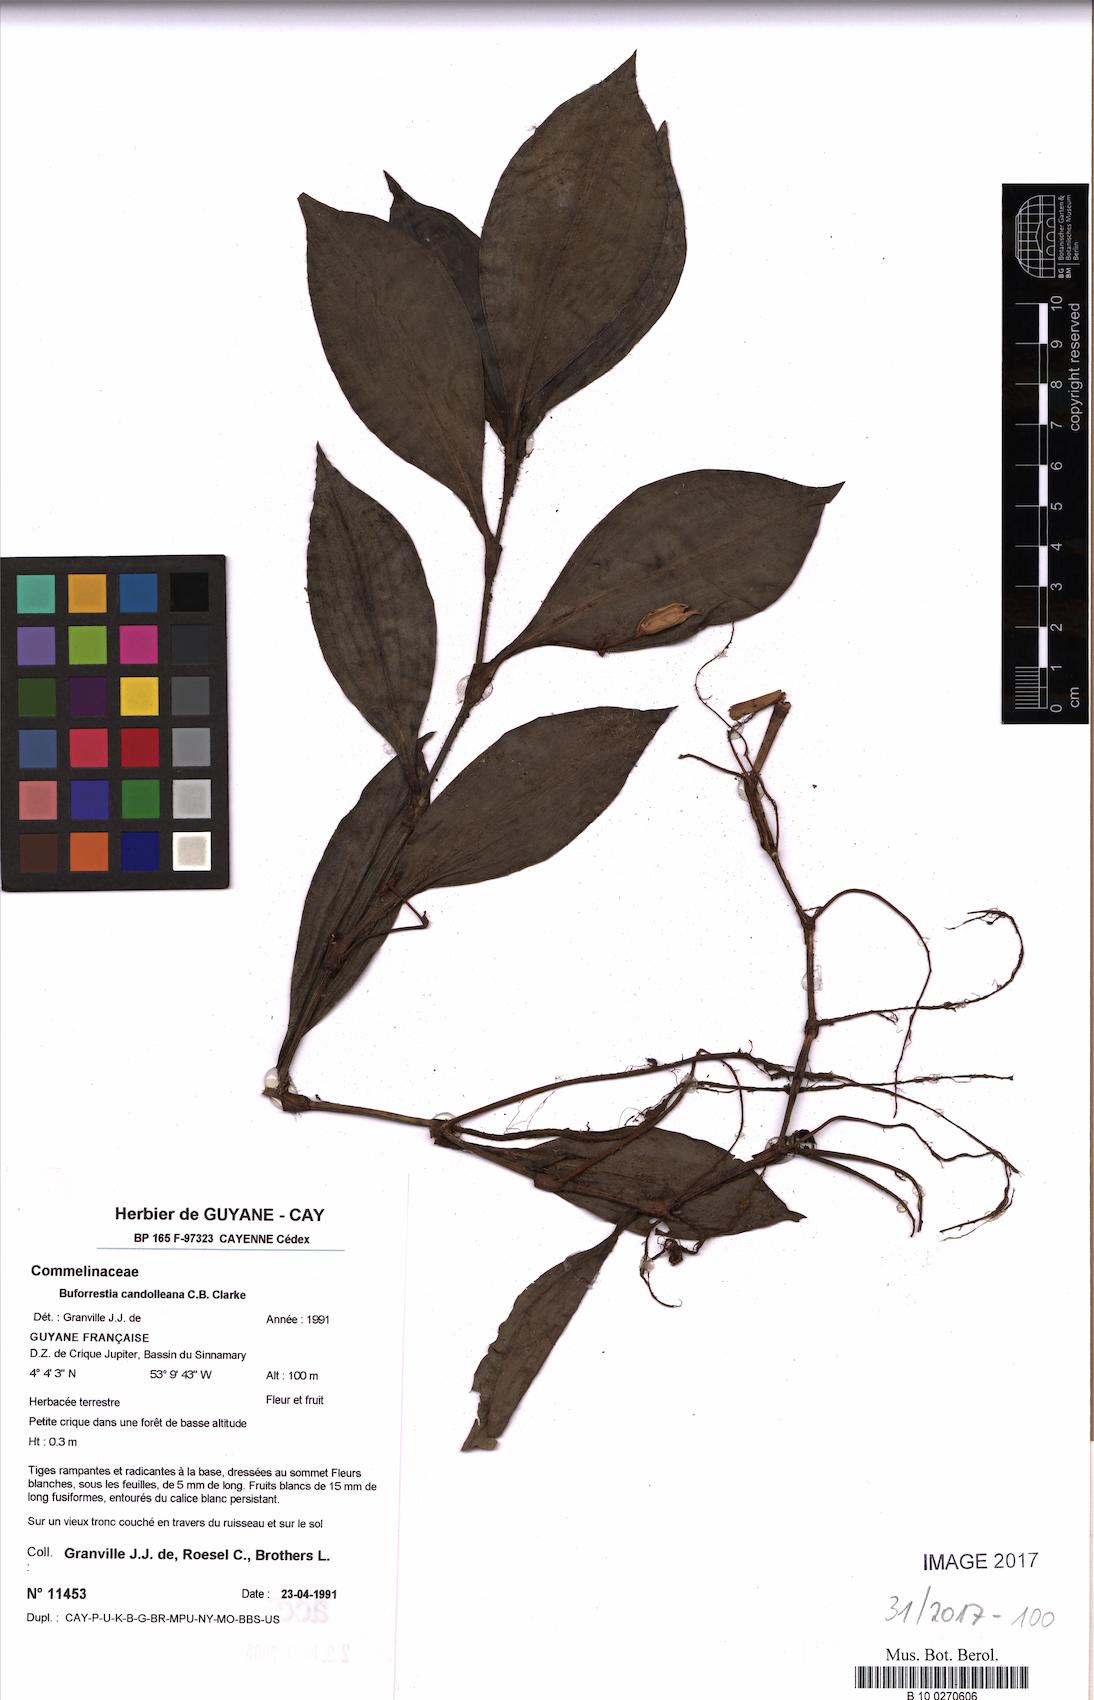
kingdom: Plantae
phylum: Tracheophyta
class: Liliopsida
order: Commelinales
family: Commelinaceae
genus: Buforrestia
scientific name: Buforrestia candolleana
